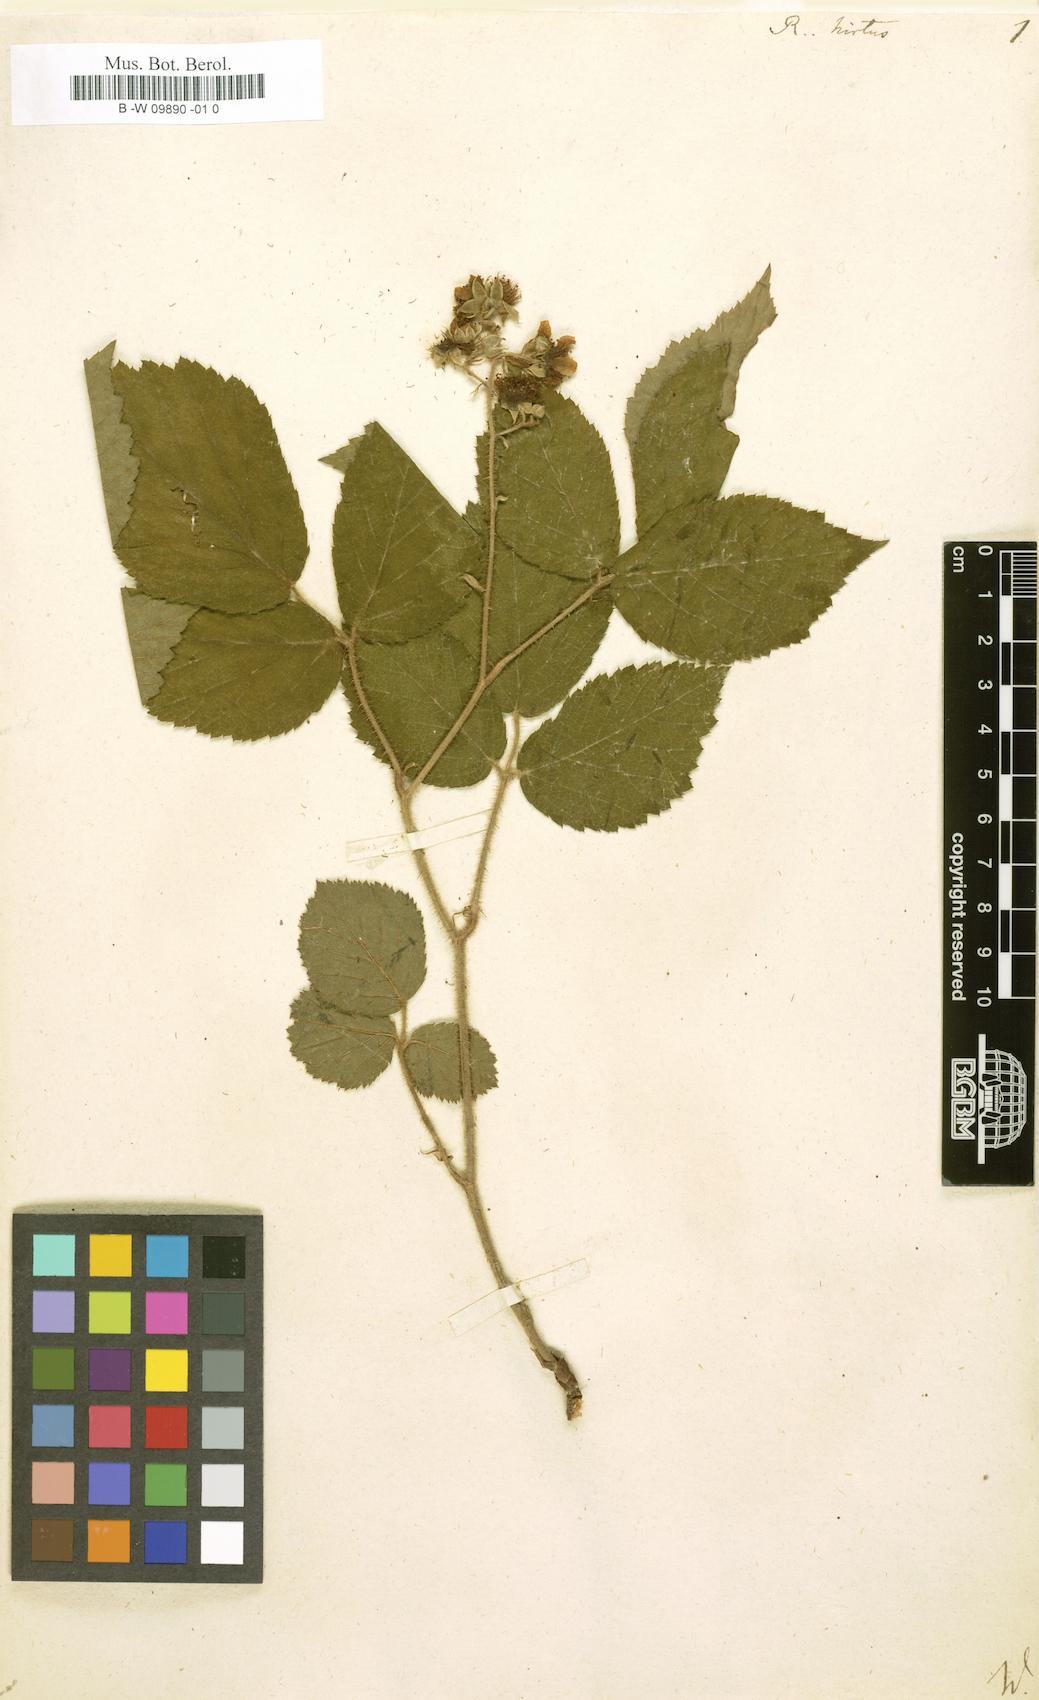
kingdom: Plantae
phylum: Tracheophyta
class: Magnoliopsida
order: Rosales
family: Rosaceae
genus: Rubus
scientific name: Rubus hirtus
